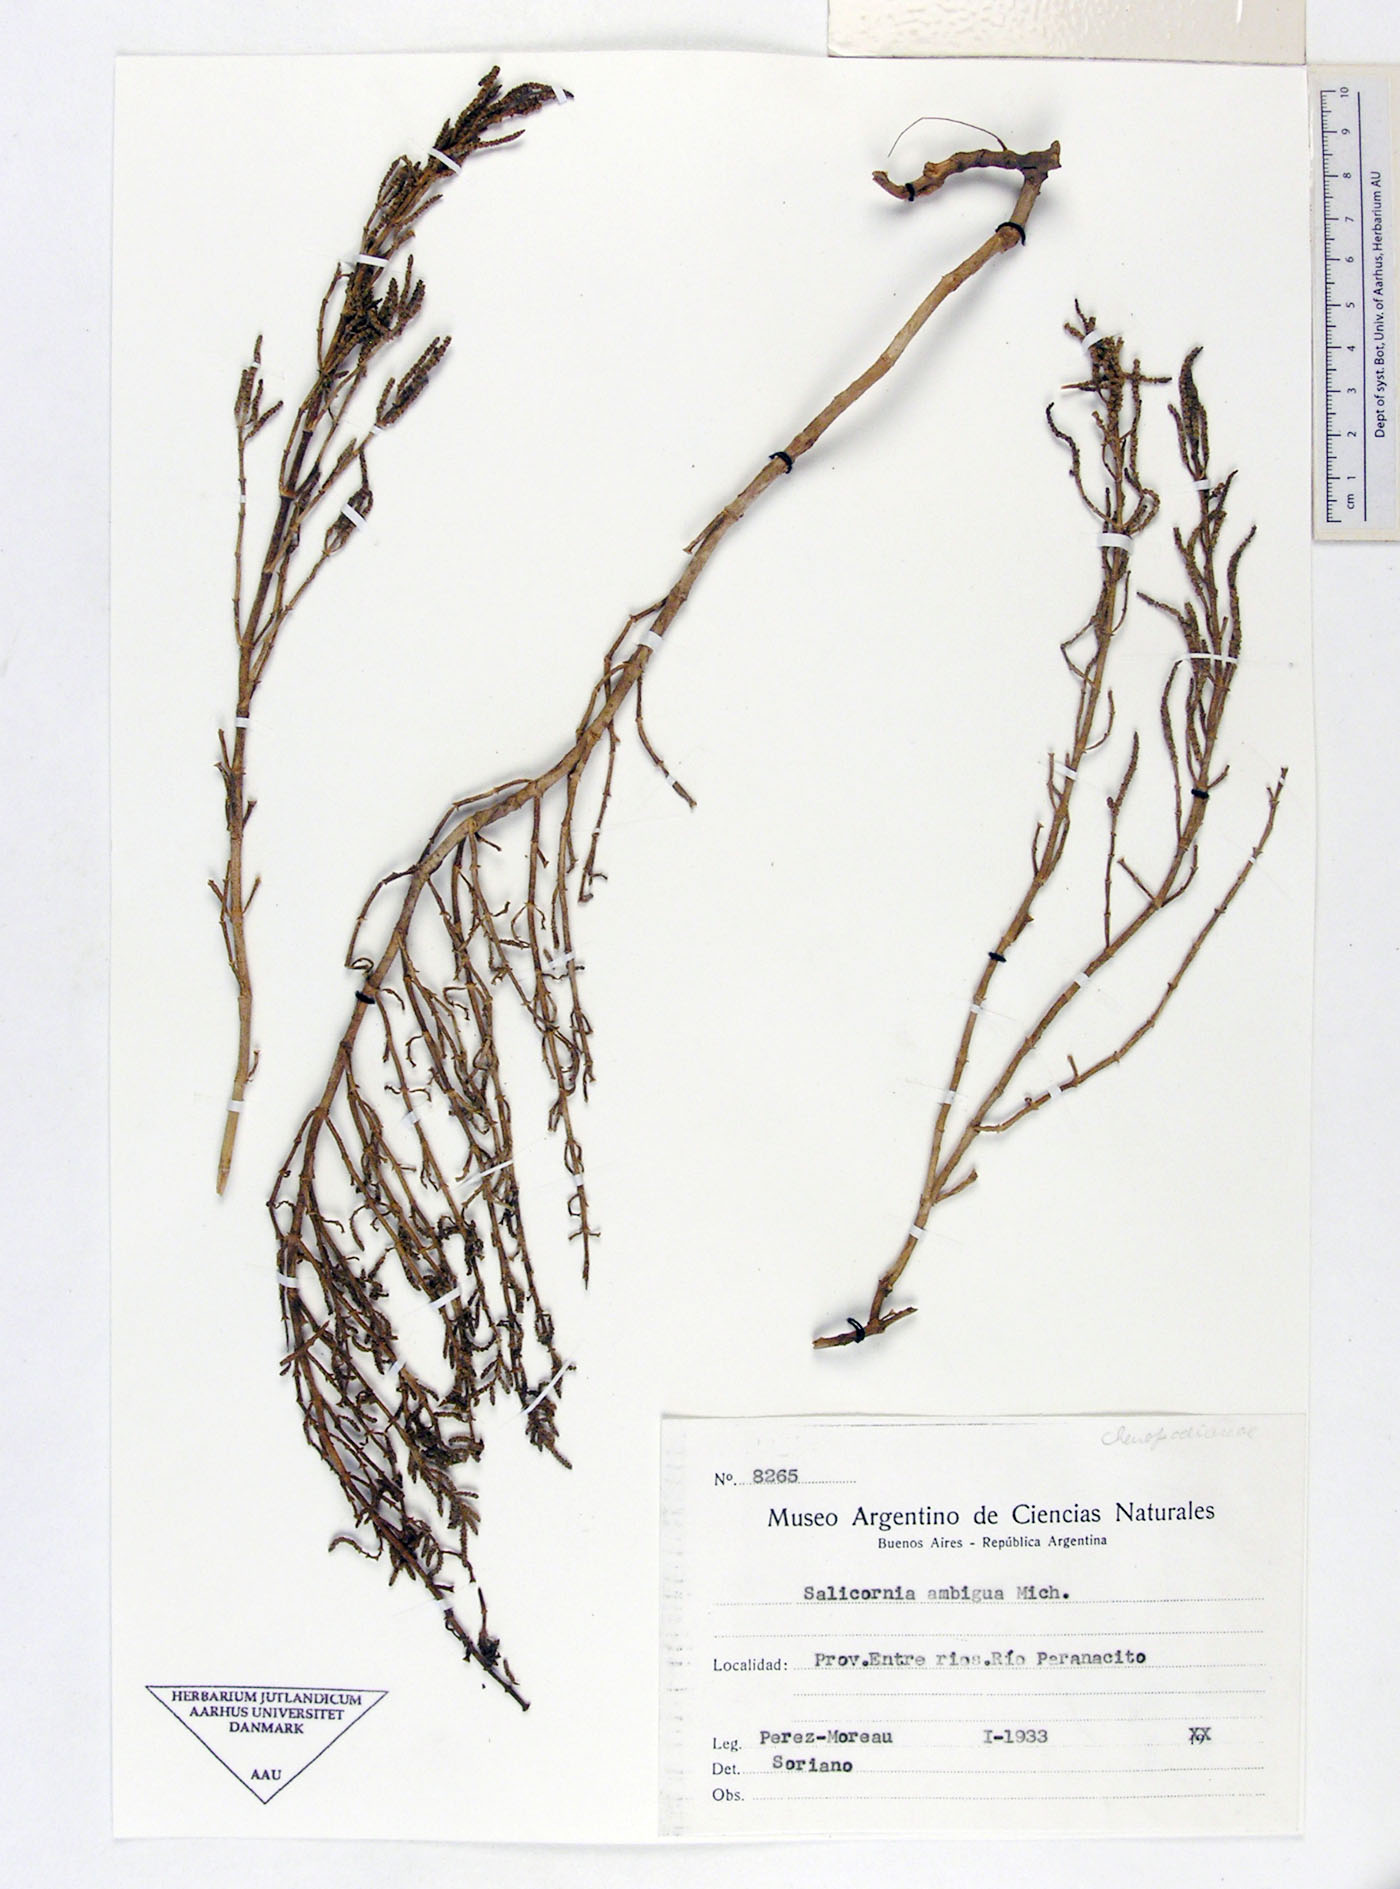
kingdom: Plantae
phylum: Tracheophyta
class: Magnoliopsida
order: Caryophyllales
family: Amaranthaceae
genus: Salicornia
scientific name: Salicornia ambigua
